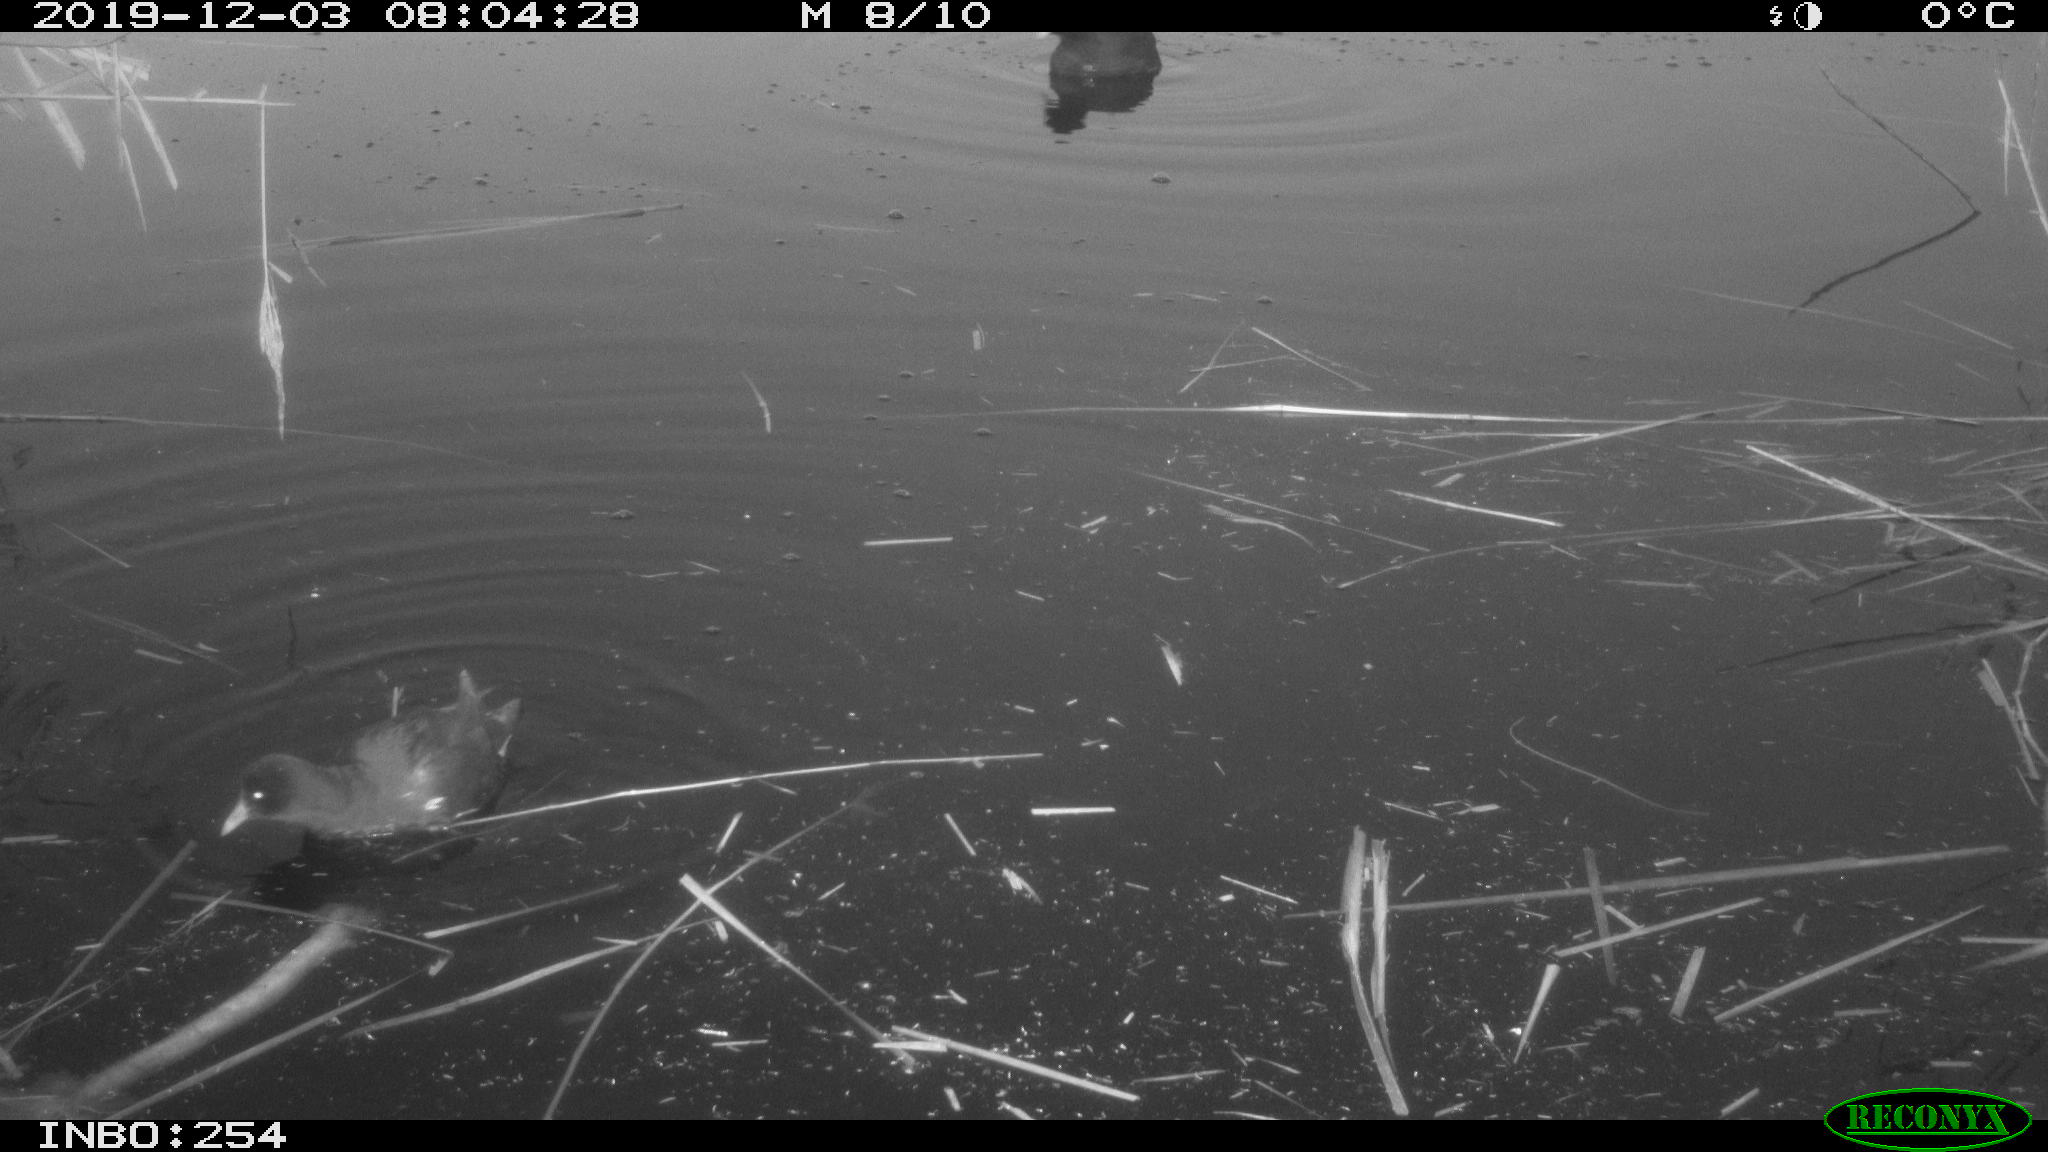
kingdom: Animalia
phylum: Chordata
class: Aves
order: Gruiformes
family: Rallidae
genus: Fulica
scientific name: Fulica atra
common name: Eurasian coot
